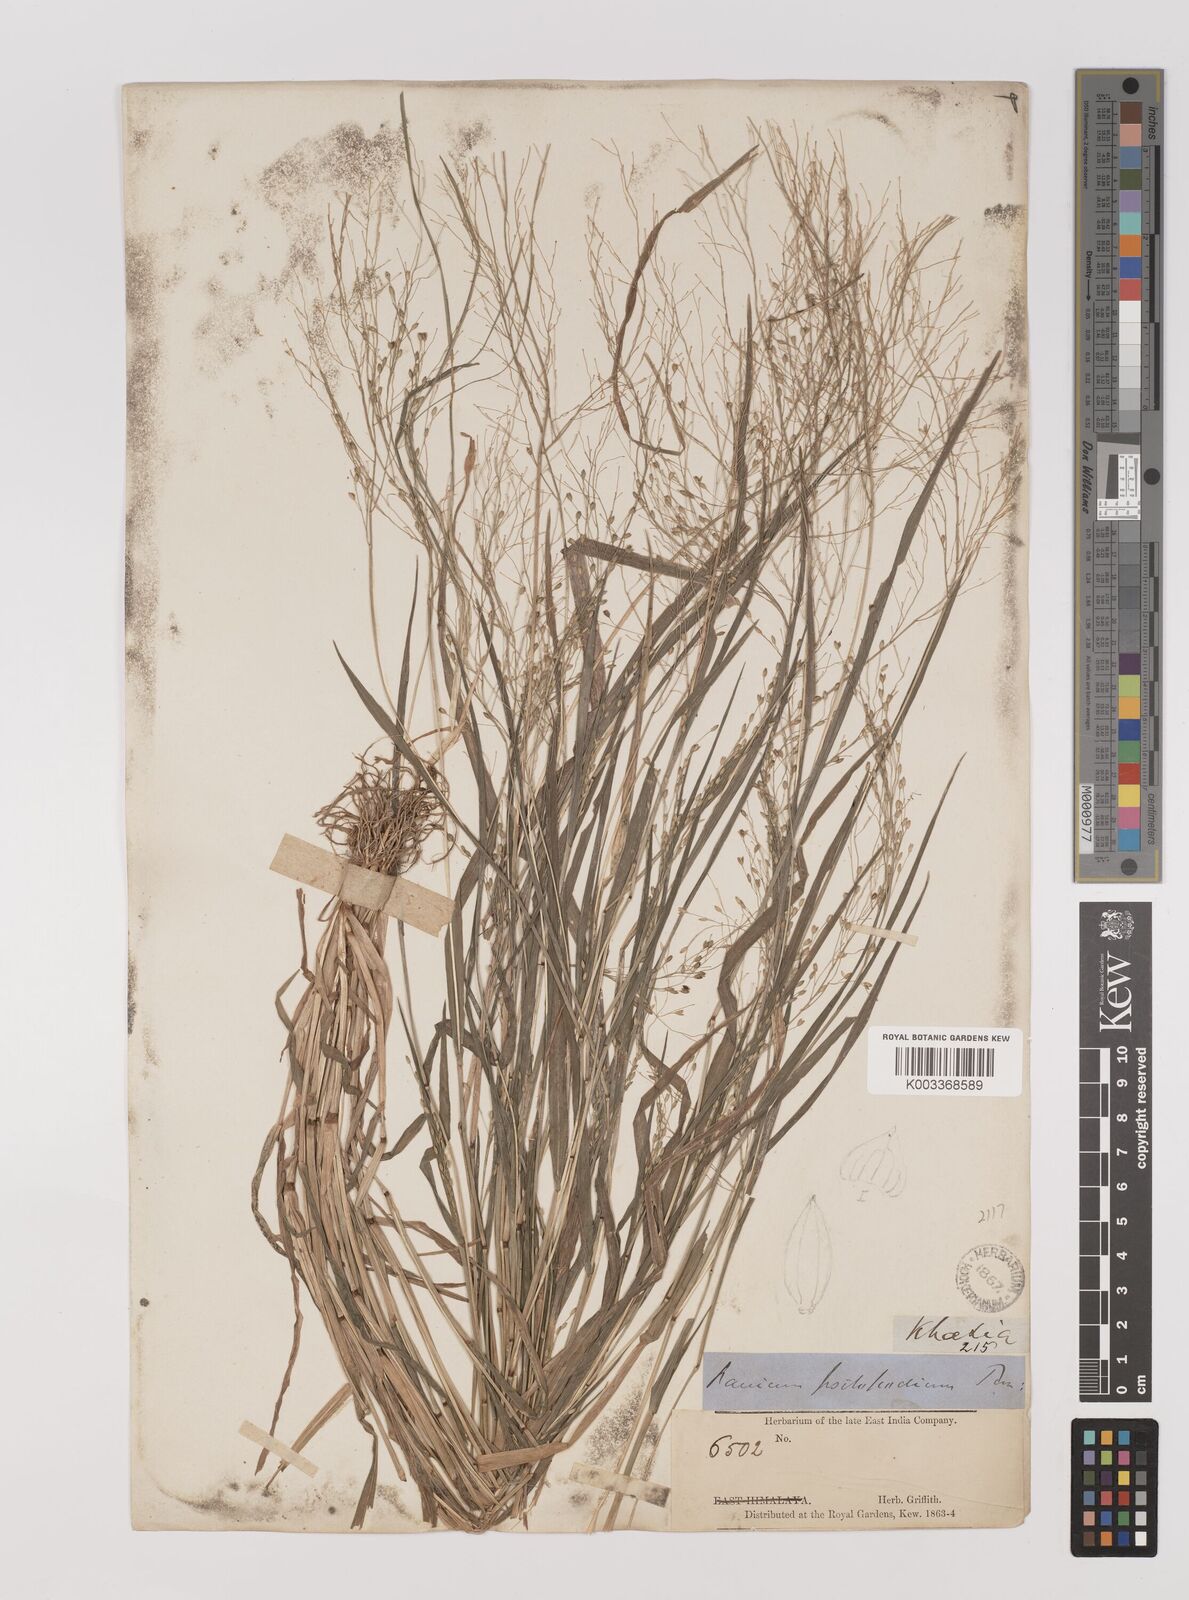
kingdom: Plantae
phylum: Tracheophyta
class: Liliopsida
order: Poales
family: Poaceae
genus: Panicum
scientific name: Panicum sumatrense
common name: Little millet
